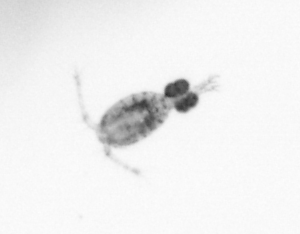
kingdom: Animalia
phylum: Arthropoda
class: Copepoda
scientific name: Copepoda
